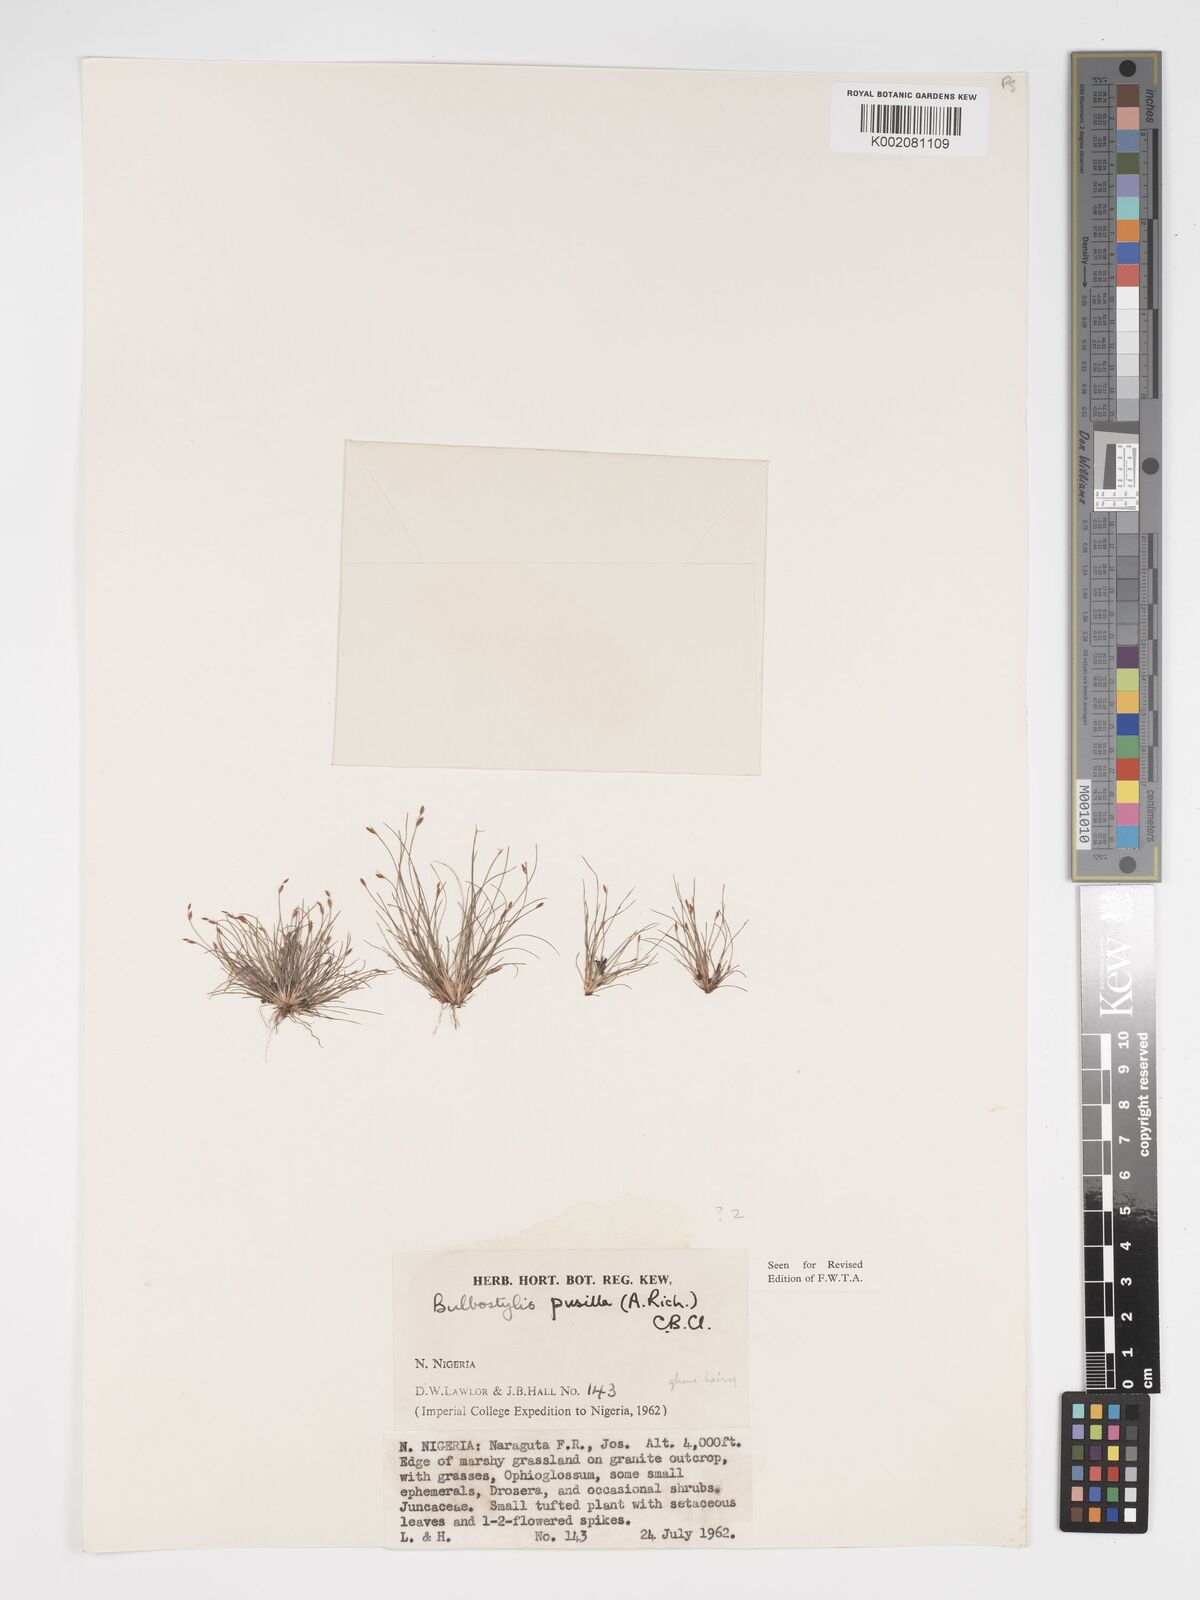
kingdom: Plantae
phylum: Tracheophyta
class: Liliopsida
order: Poales
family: Cyperaceae
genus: Bulbostylis
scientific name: Bulbostylis pusilla
